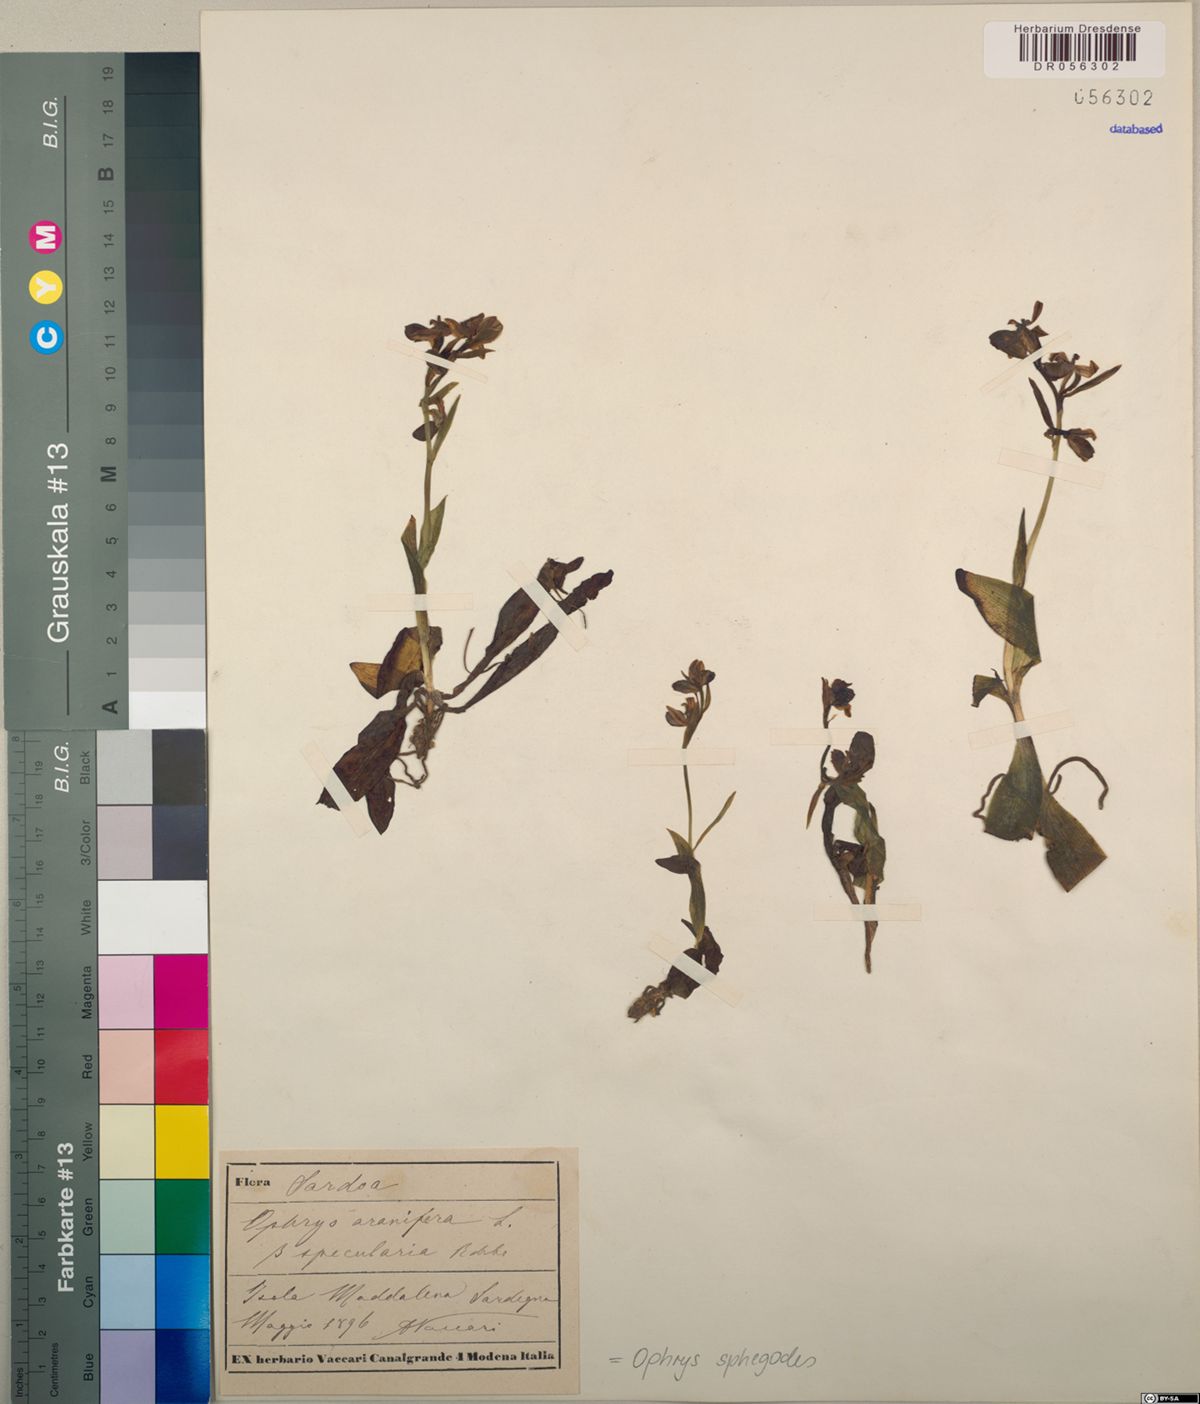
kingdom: Plantae
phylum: Tracheophyta
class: Liliopsida
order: Asparagales
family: Orchidaceae
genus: Ophrys
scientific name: Ophrys sphegodes
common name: Early spider-orchid
